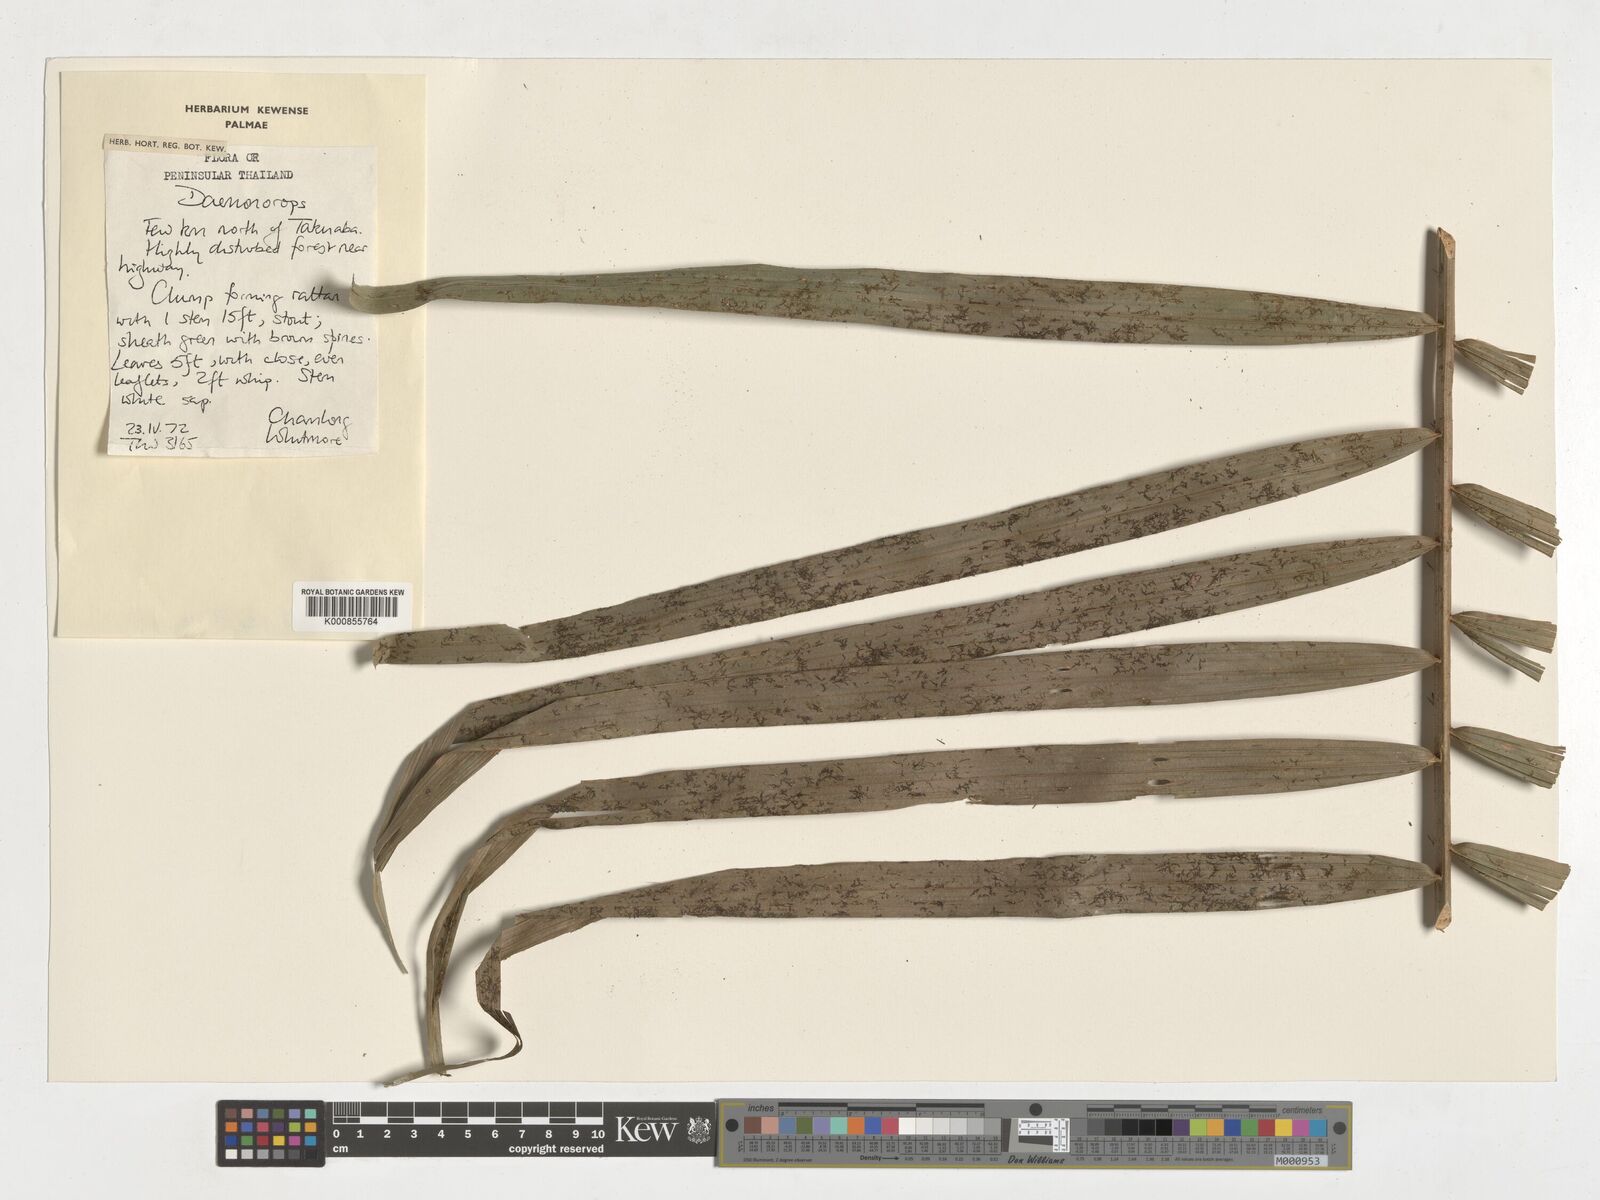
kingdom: Plantae
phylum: Tracheophyta
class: Liliopsida
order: Arecales
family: Arecaceae
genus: Daemonorops
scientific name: Daemonorops
